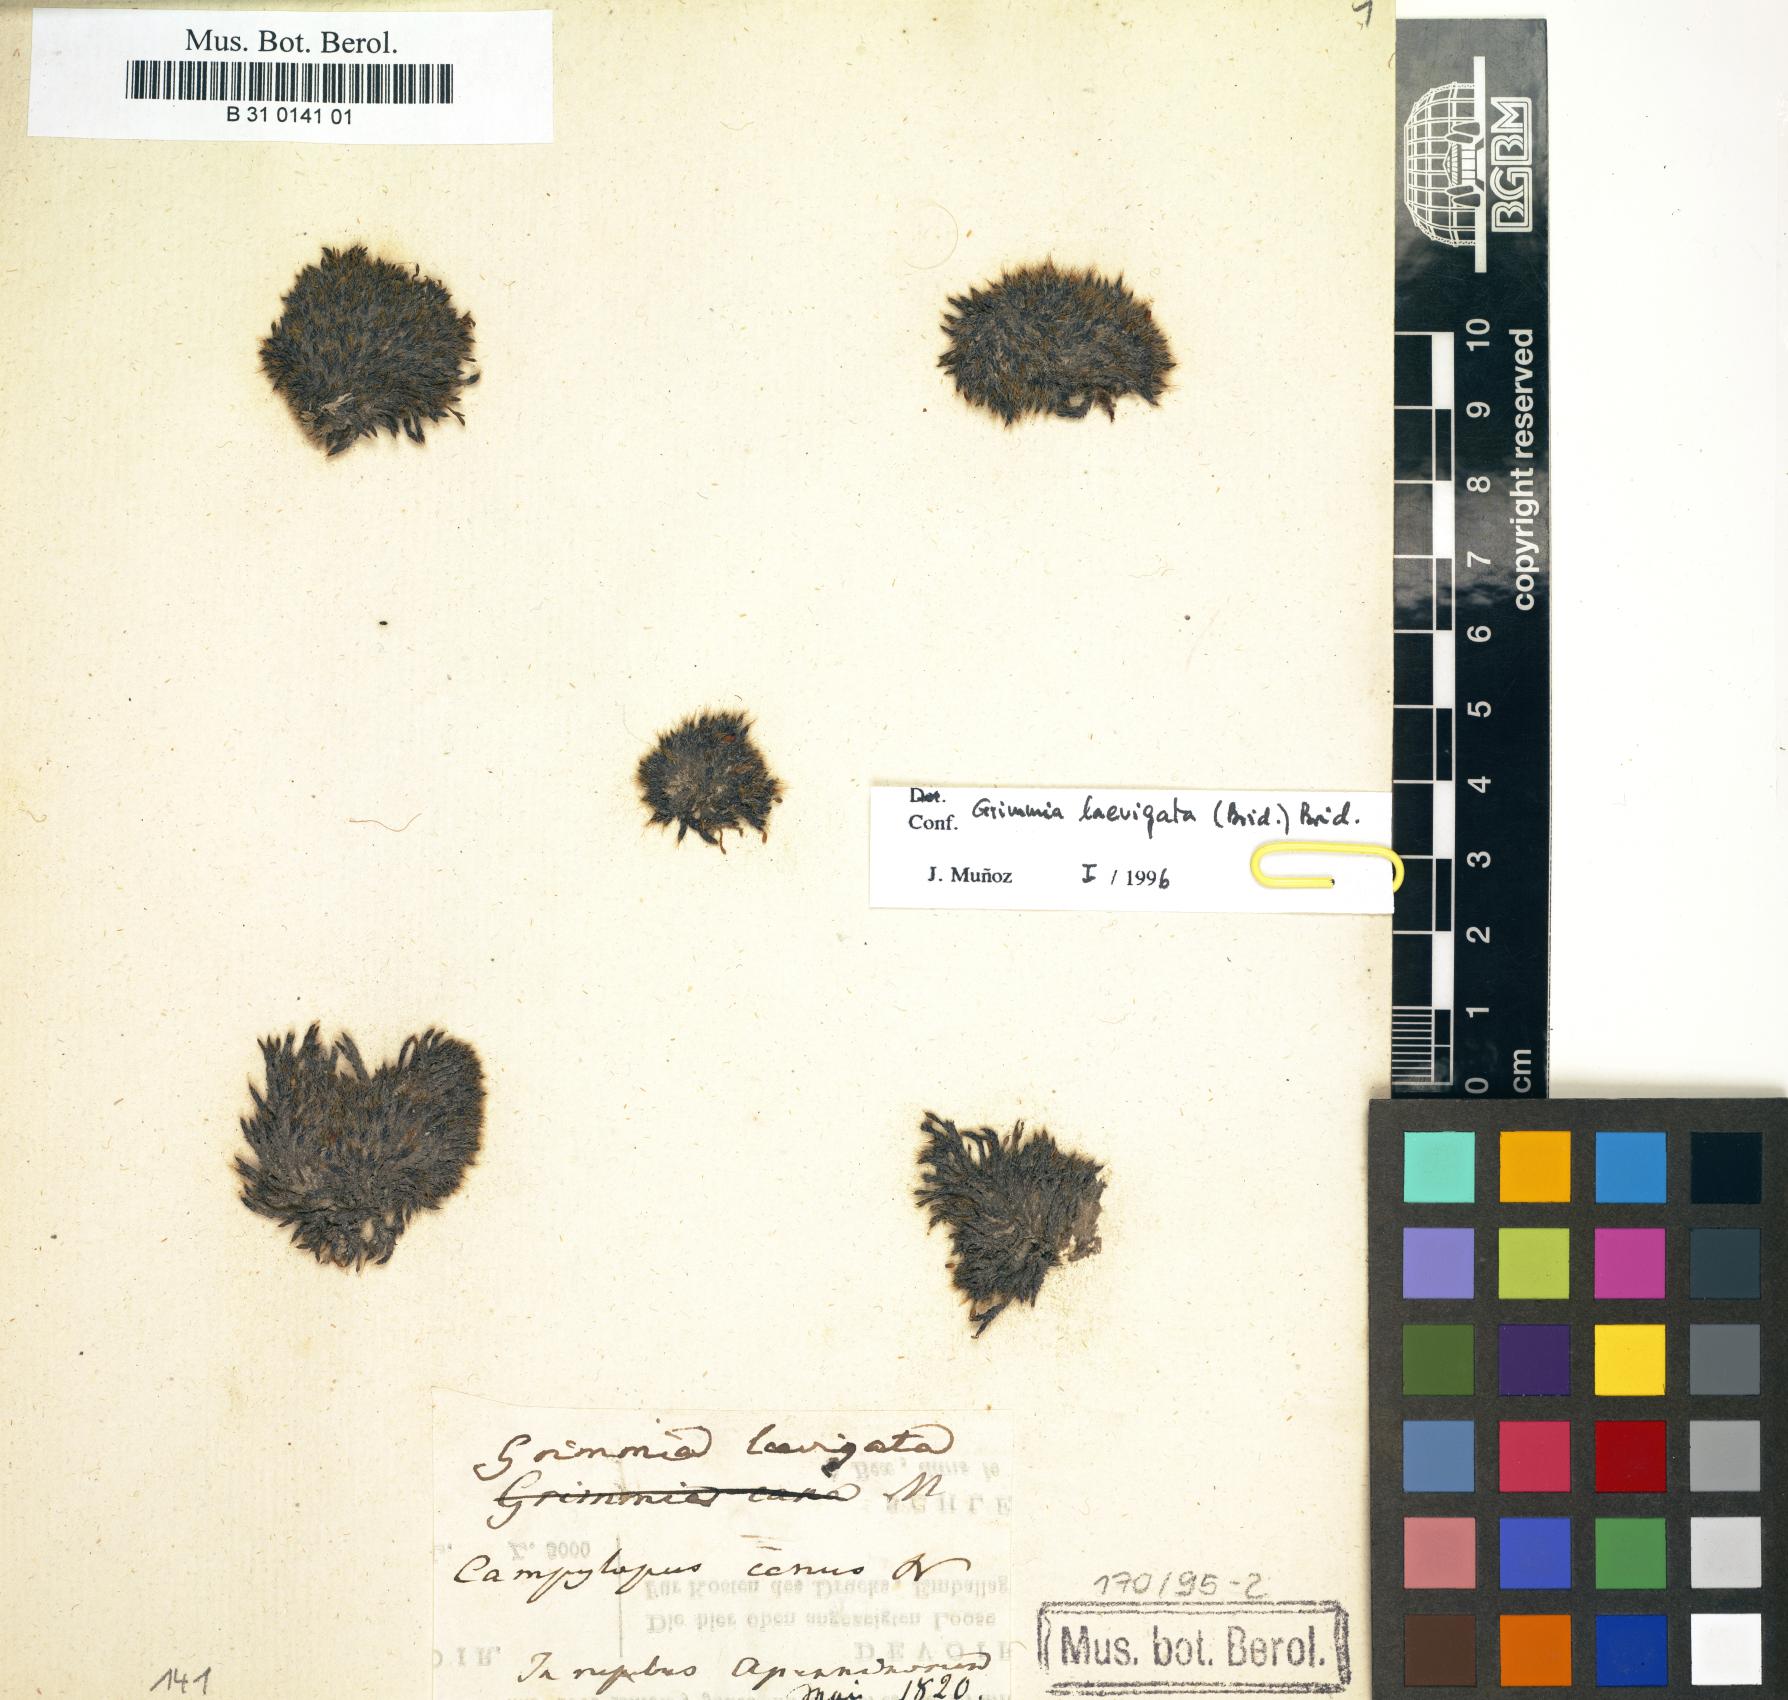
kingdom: Plantae
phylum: Bryophyta
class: Bryopsida
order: Grimmiales
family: Grimmiaceae
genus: Grimmia
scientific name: Grimmia laevigata
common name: Hoary grimmia
